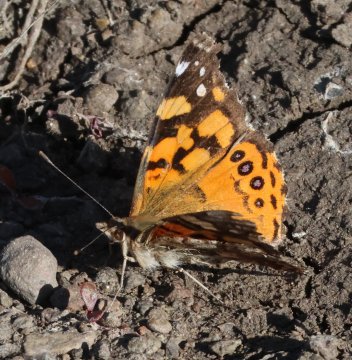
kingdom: Animalia
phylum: Arthropoda
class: Insecta
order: Lepidoptera
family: Nymphalidae
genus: Vanessa
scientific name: Vanessa annabella
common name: West Coast Lady
